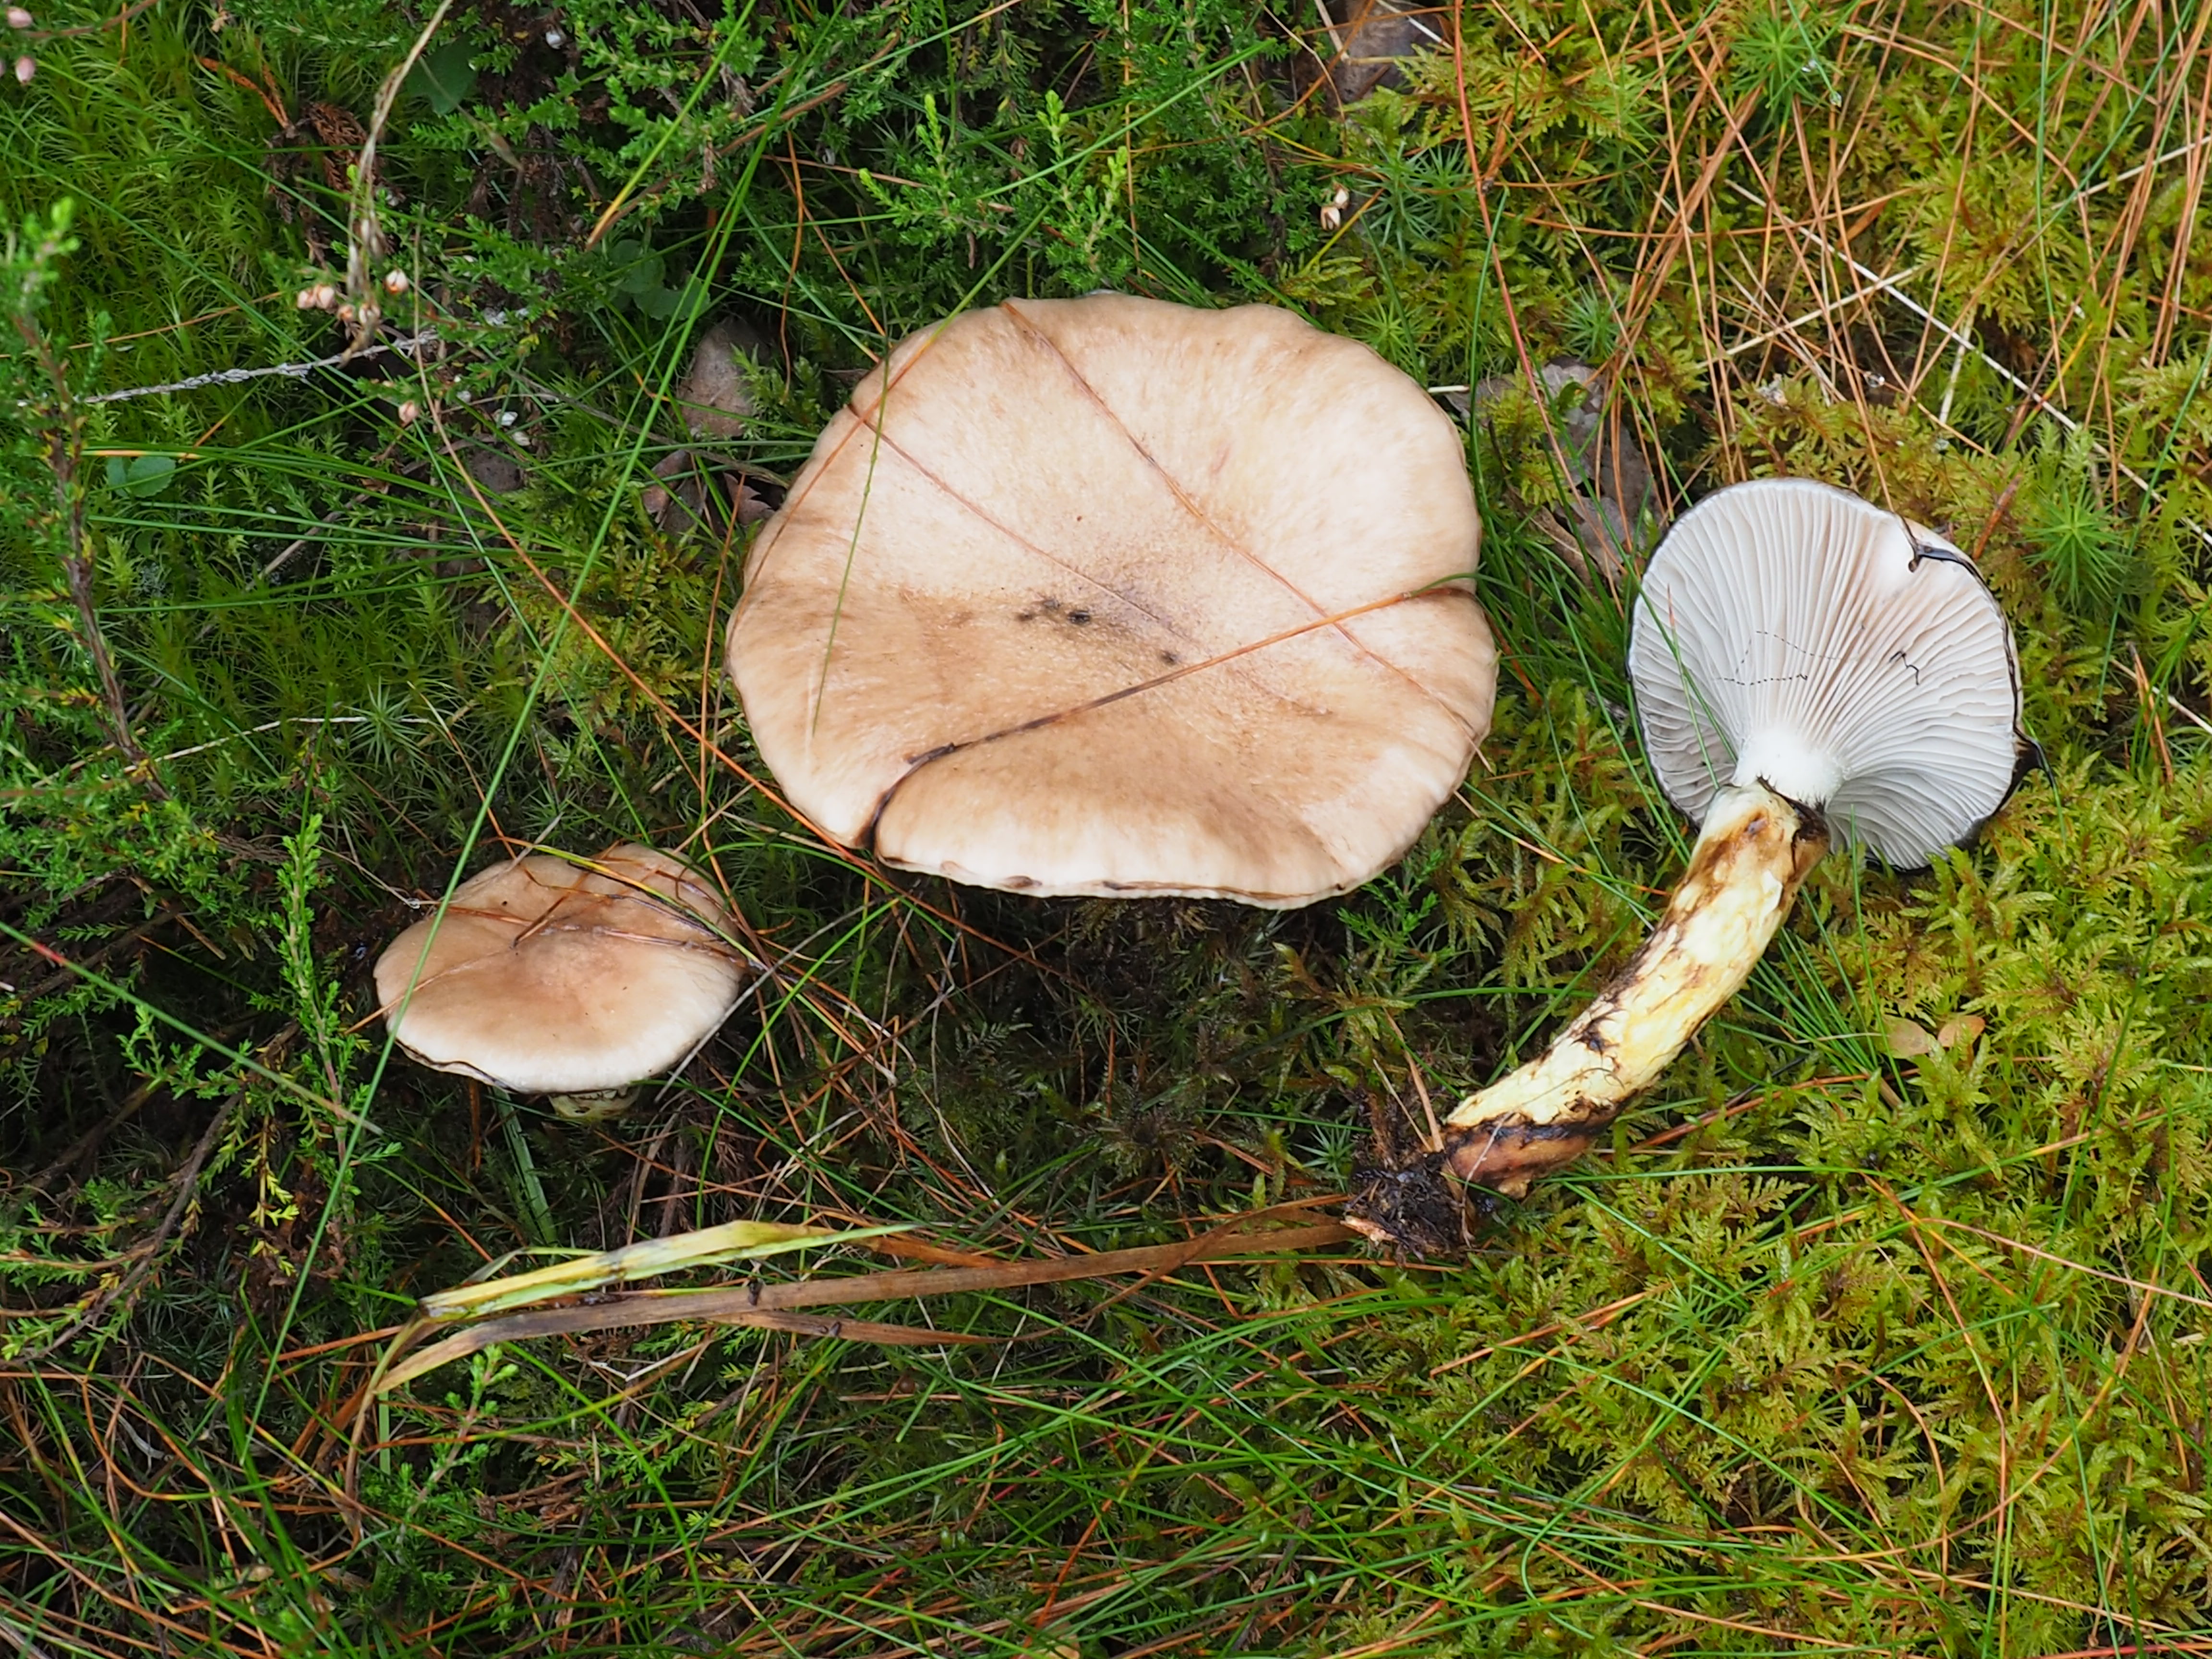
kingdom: Fungi
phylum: Basidiomycota
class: Agaricomycetes
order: Boletales
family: Gomphidiaceae
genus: Gomphidius
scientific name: Gomphidius glutinosus
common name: Slimy spike
